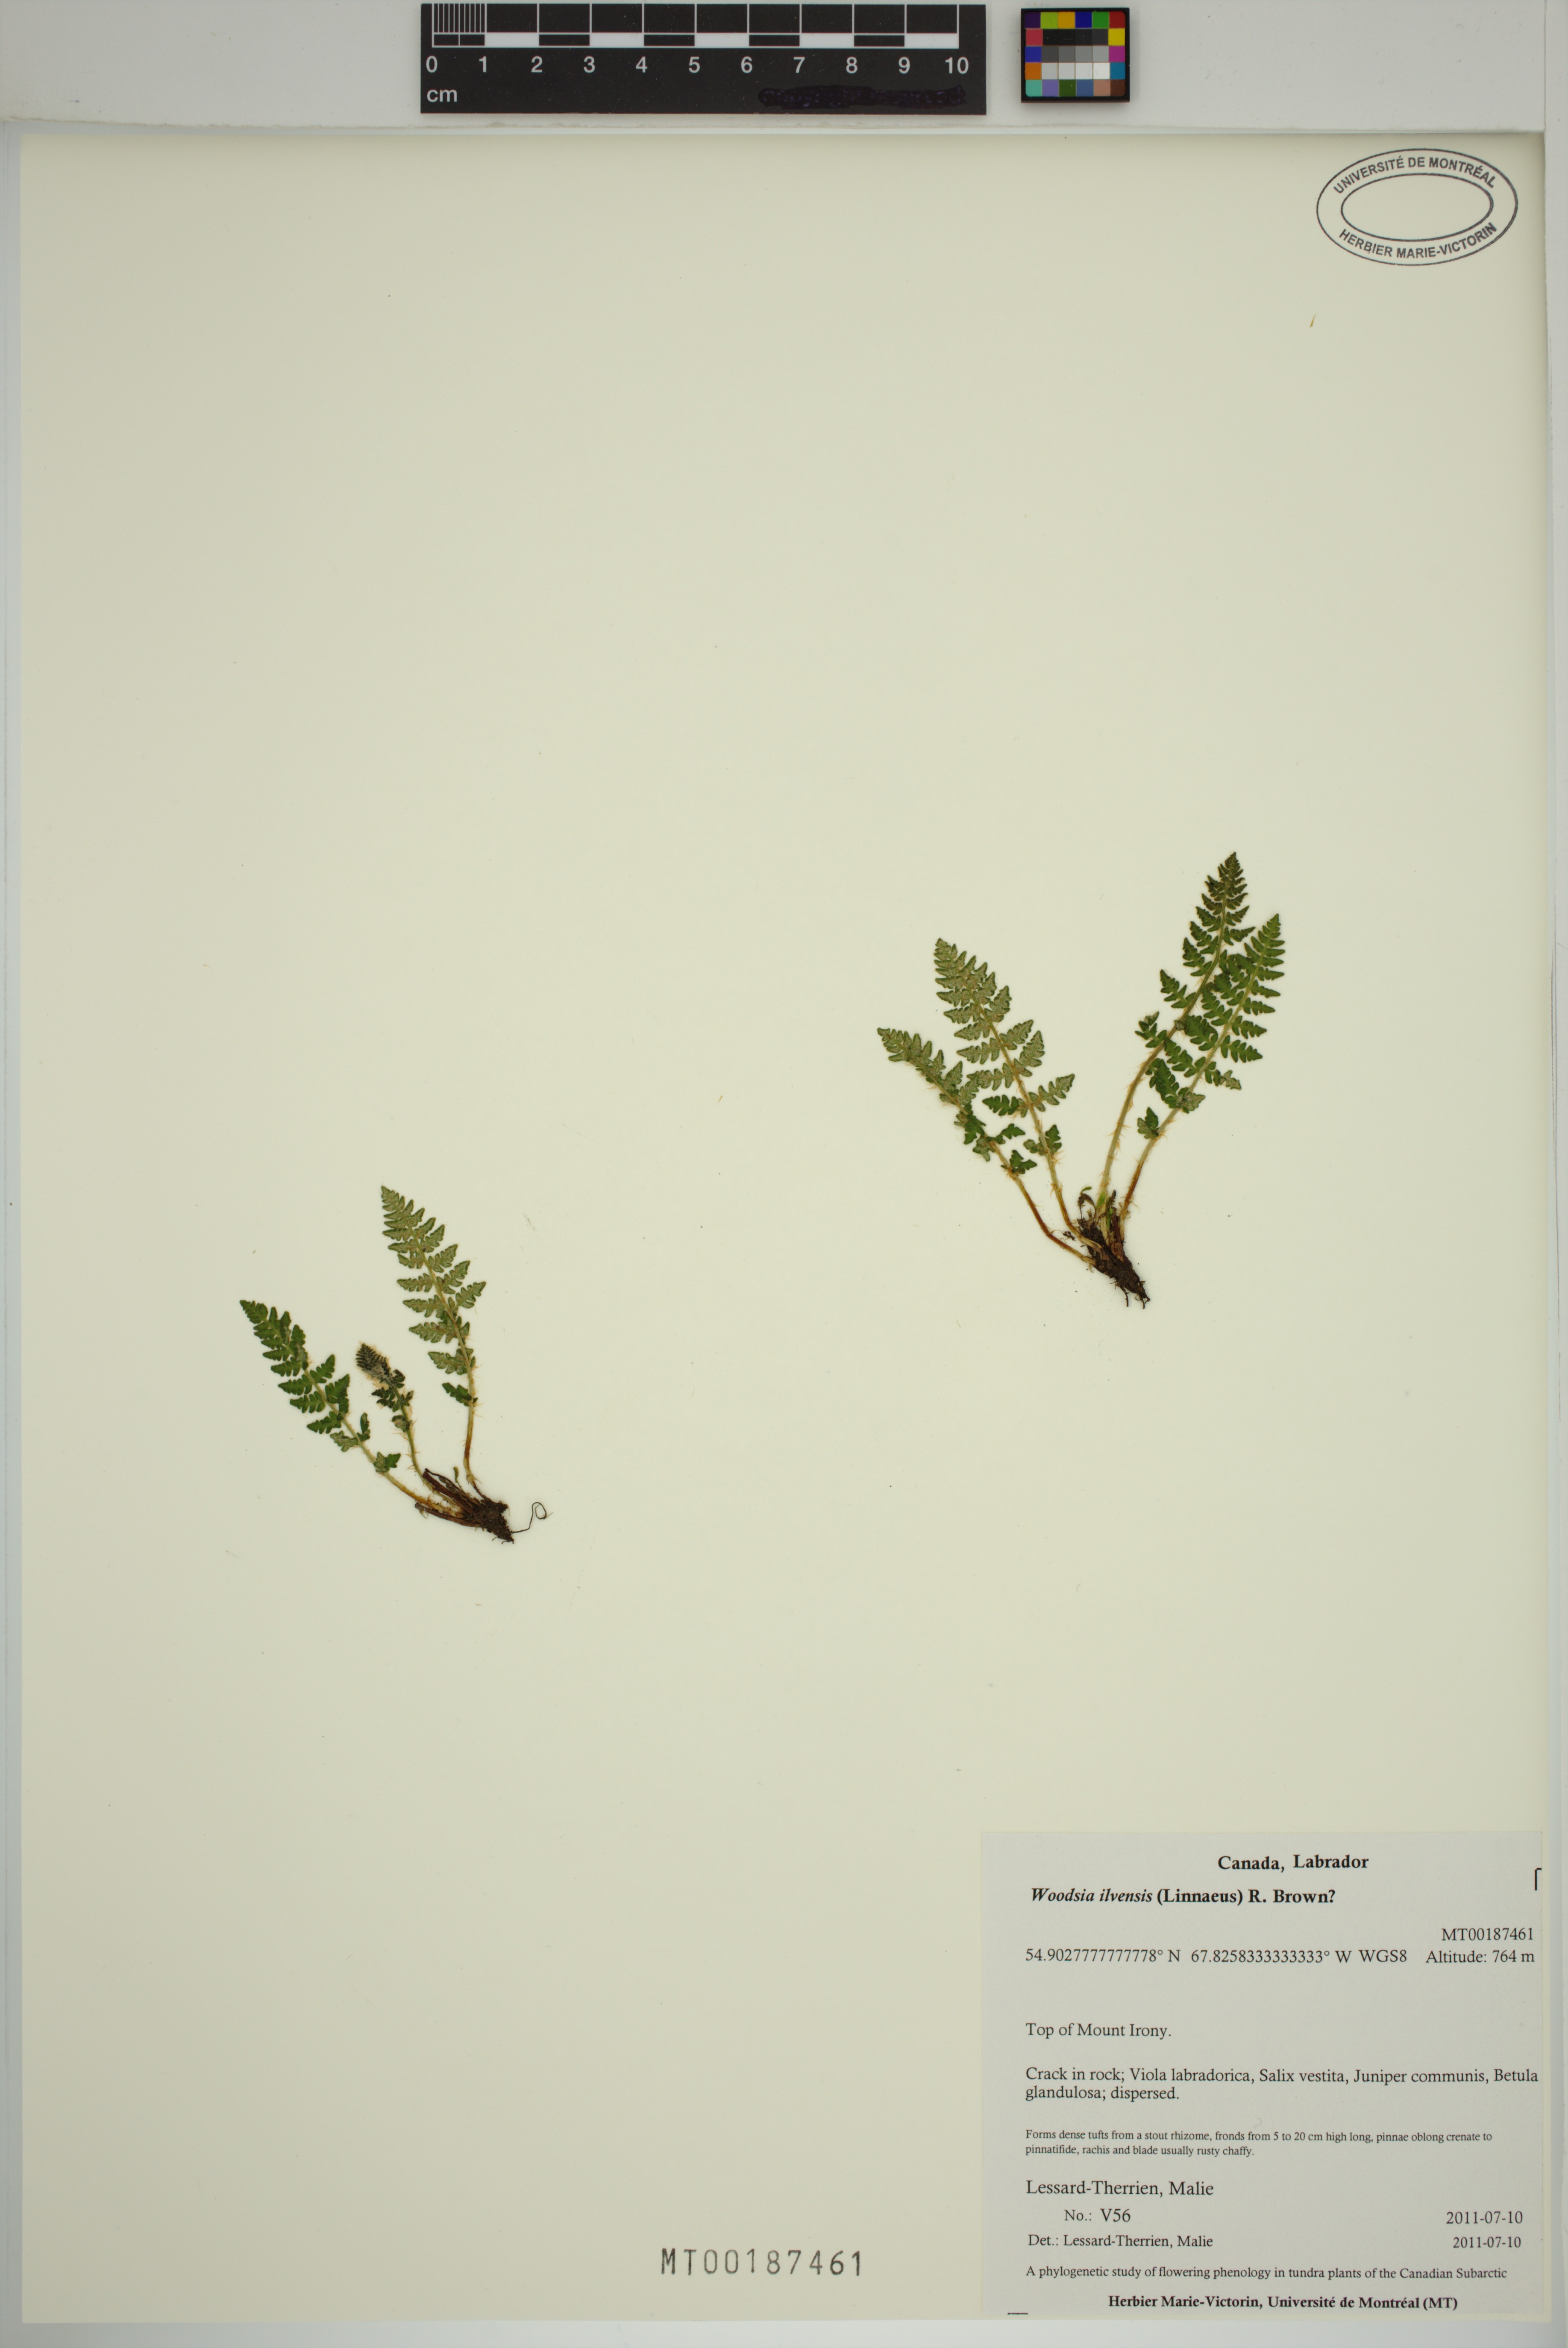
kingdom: Plantae
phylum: Tracheophyta
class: Polypodiopsida
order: Polypodiales
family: Woodsiaceae
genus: Woodsia
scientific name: Woodsia ilvensis
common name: Fragrant woodsia
